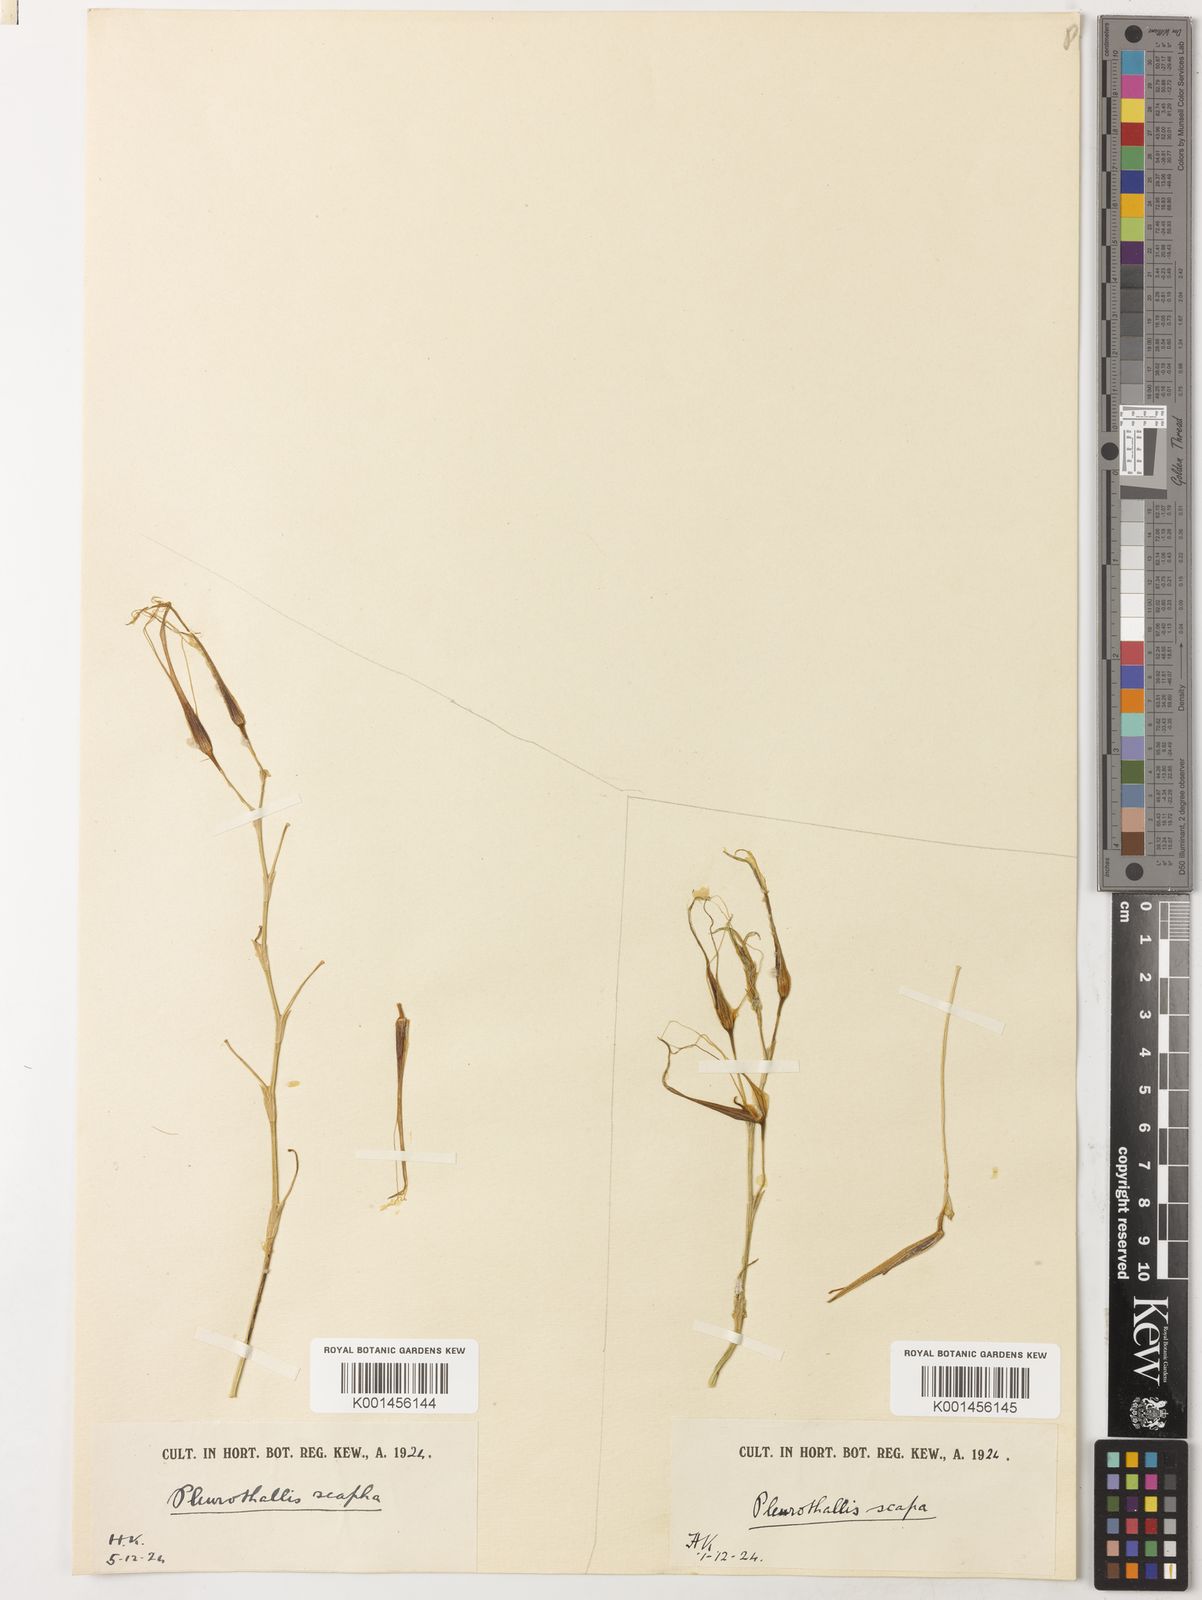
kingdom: Plantae
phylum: Tracheophyta
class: Liliopsida
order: Asparagales
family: Orchidaceae
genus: Pleurothallis
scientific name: Pleurothallis sirene
